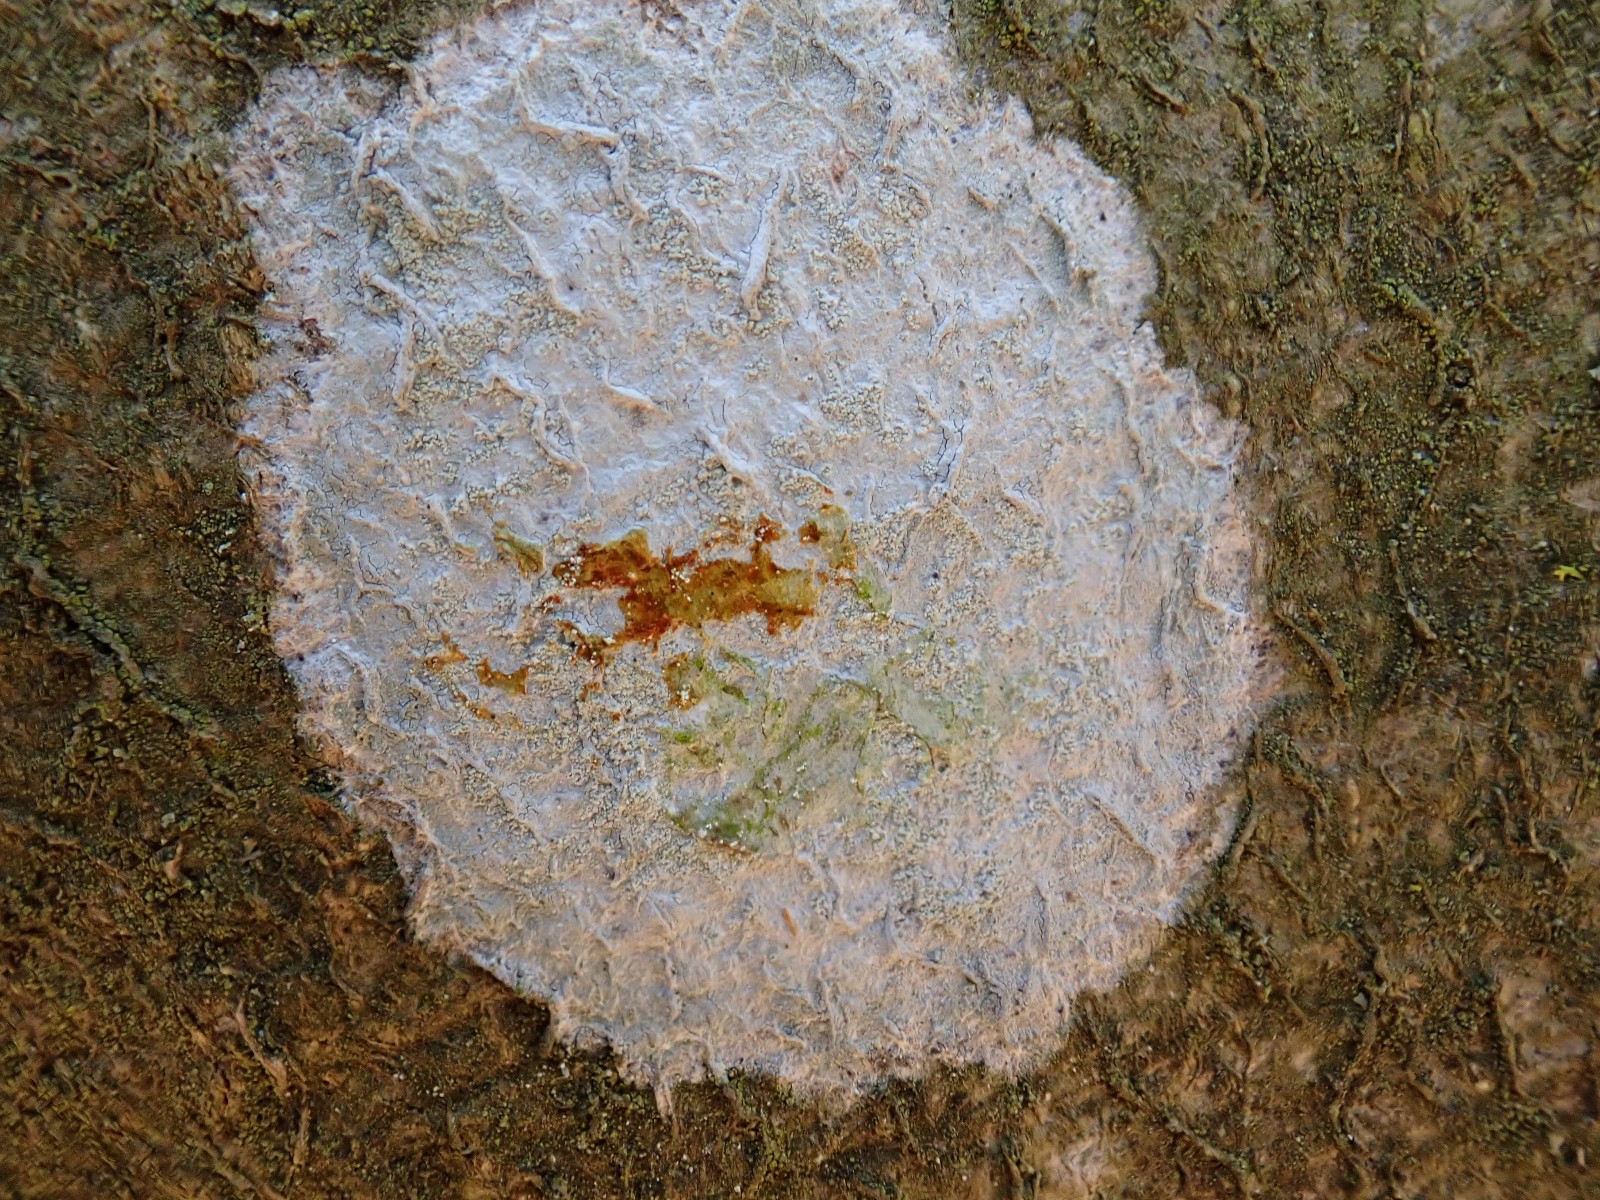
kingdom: Fungi
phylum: Ascomycota
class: Lecanoromycetes
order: Ostropales
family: Phlyctidaceae
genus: Phlyctis
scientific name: Phlyctis argena
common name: almindelig sølvlav
